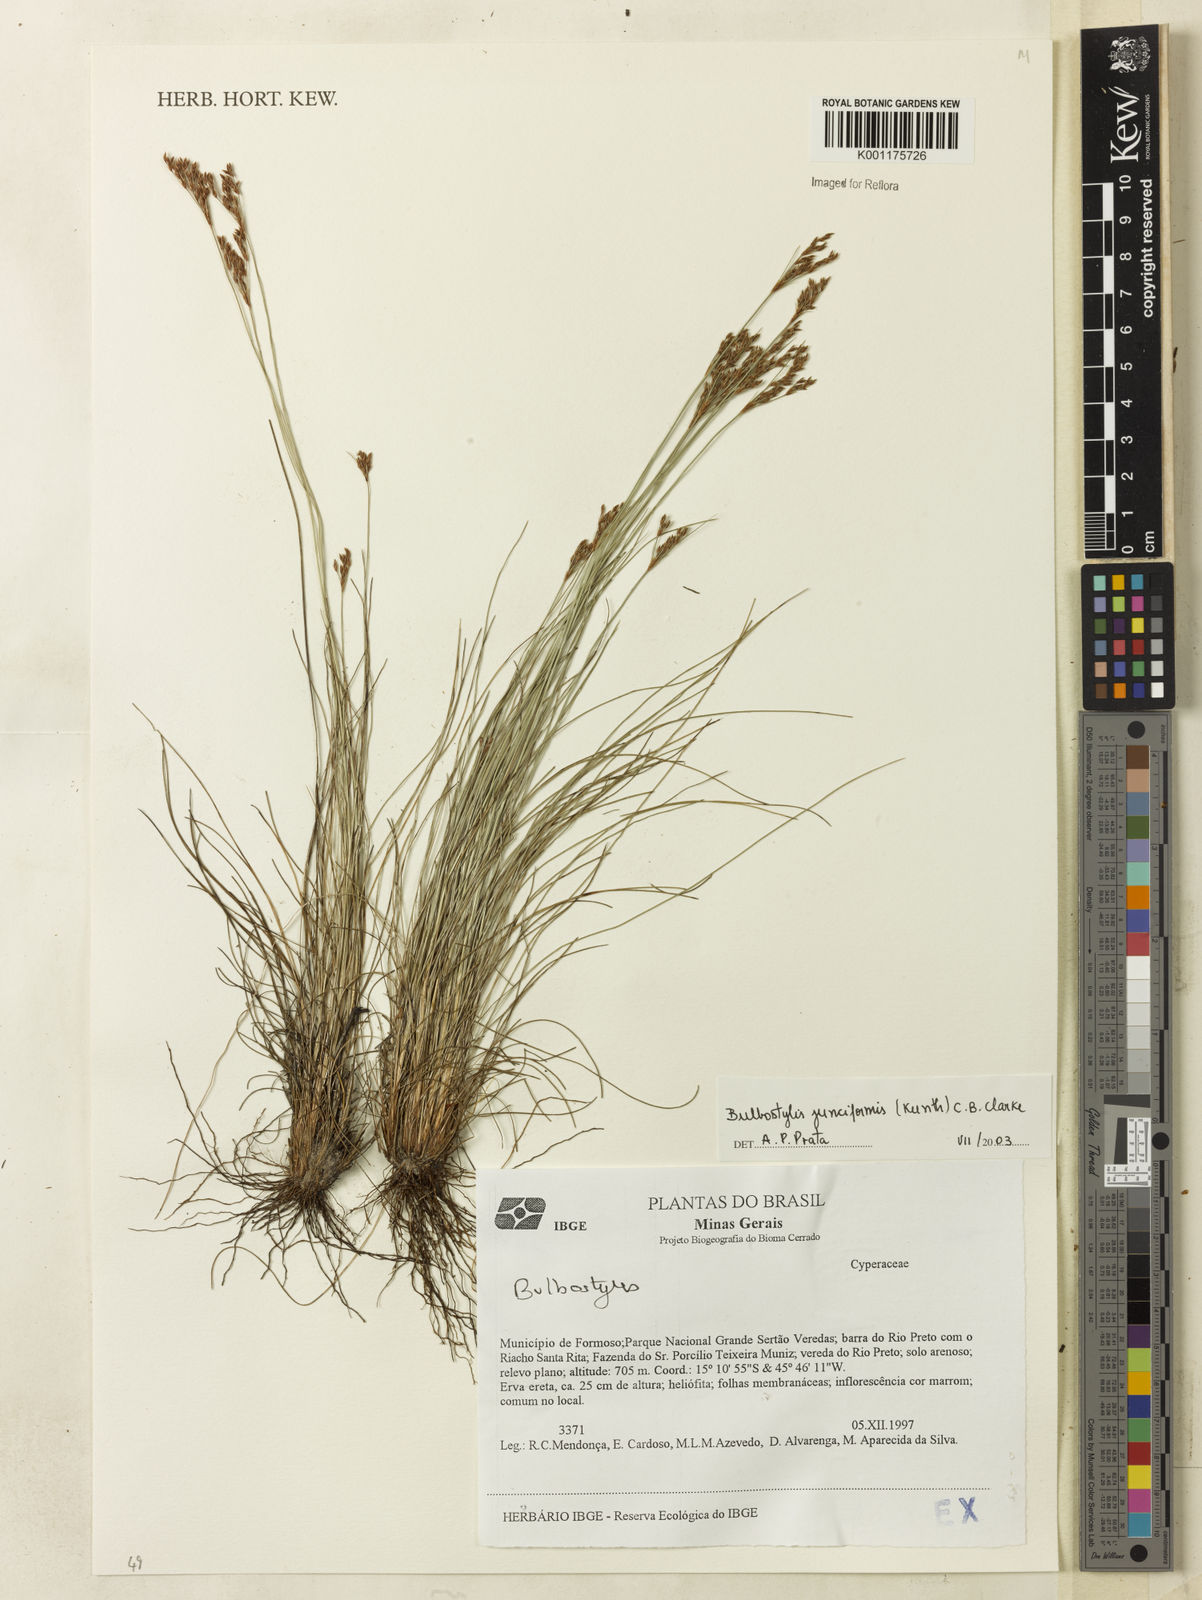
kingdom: Plantae
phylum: Tracheophyta
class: Liliopsida
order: Poales
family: Cyperaceae
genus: Bulbostylis
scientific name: Bulbostylis junciformis
